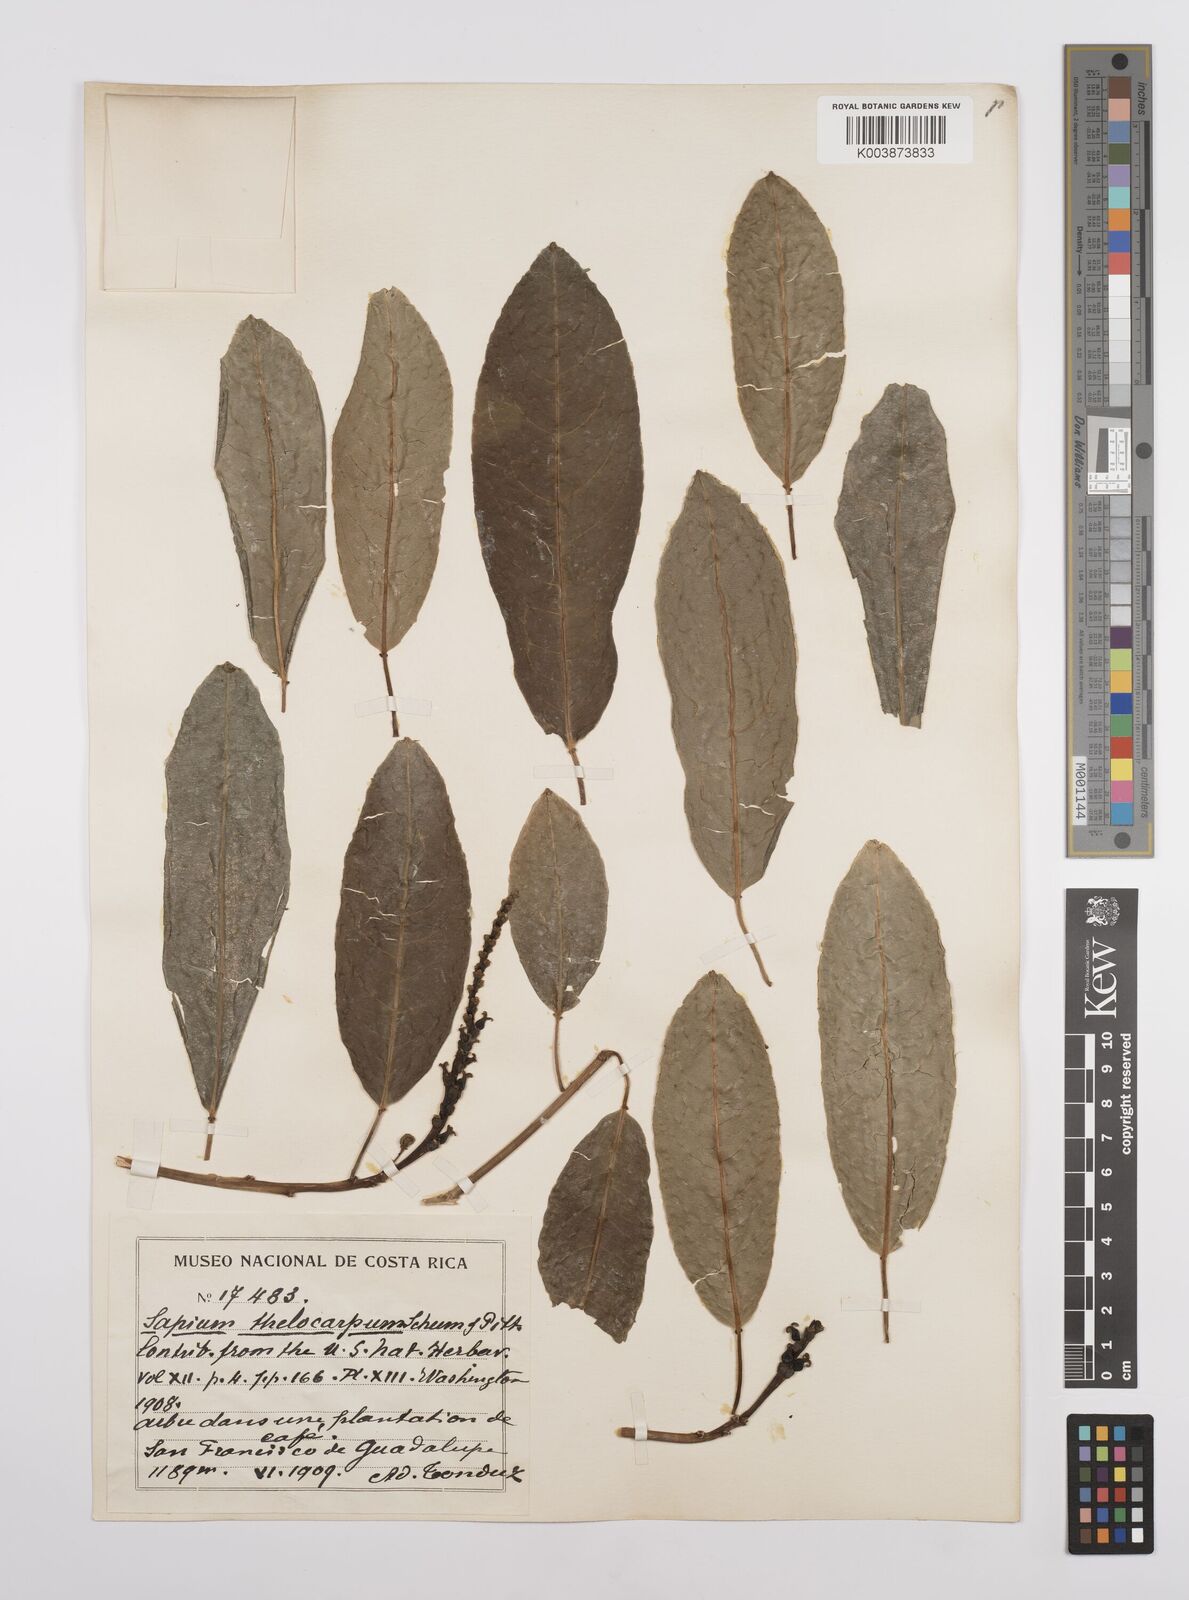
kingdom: Plantae
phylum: Tracheophyta
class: Magnoliopsida
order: Malpighiales
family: Euphorbiaceae
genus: Sapium
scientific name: Sapium macrocarpum
